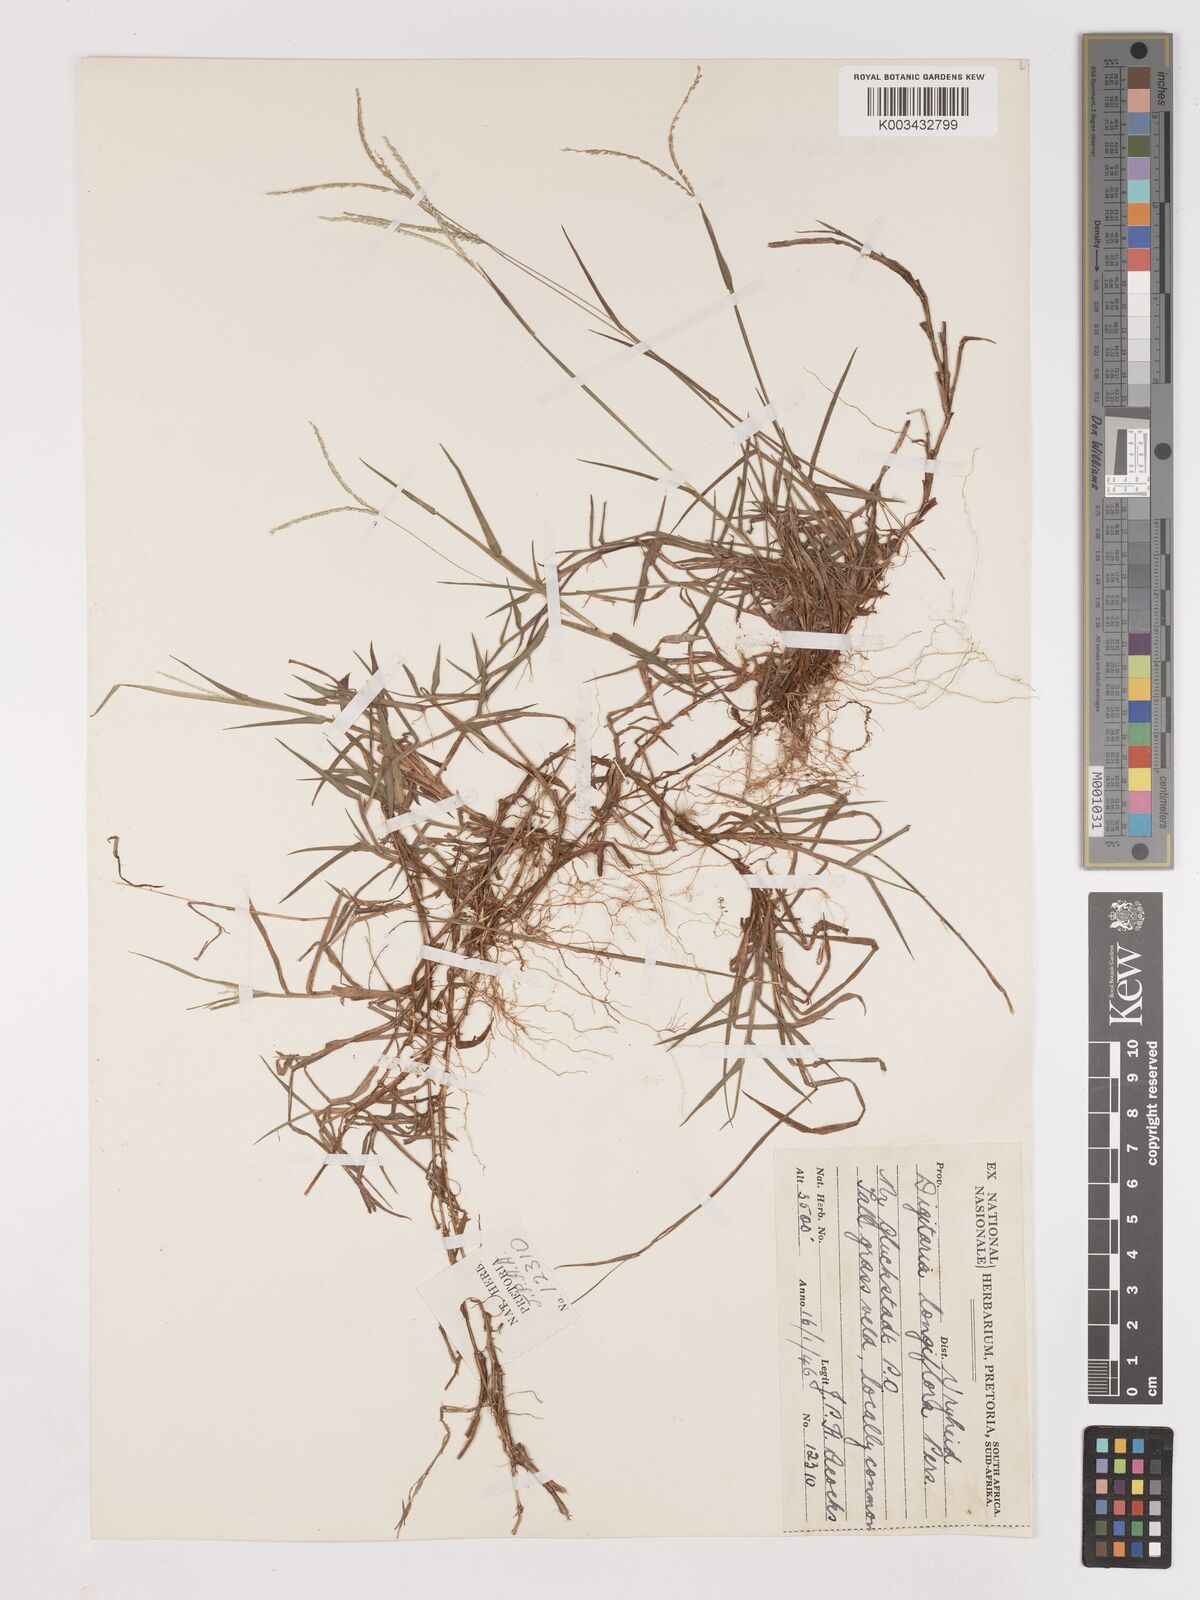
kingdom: Plantae
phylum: Tracheophyta
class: Liliopsida
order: Poales
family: Poaceae
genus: Digitaria
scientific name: Digitaria longiflora
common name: Wire crabgrass
